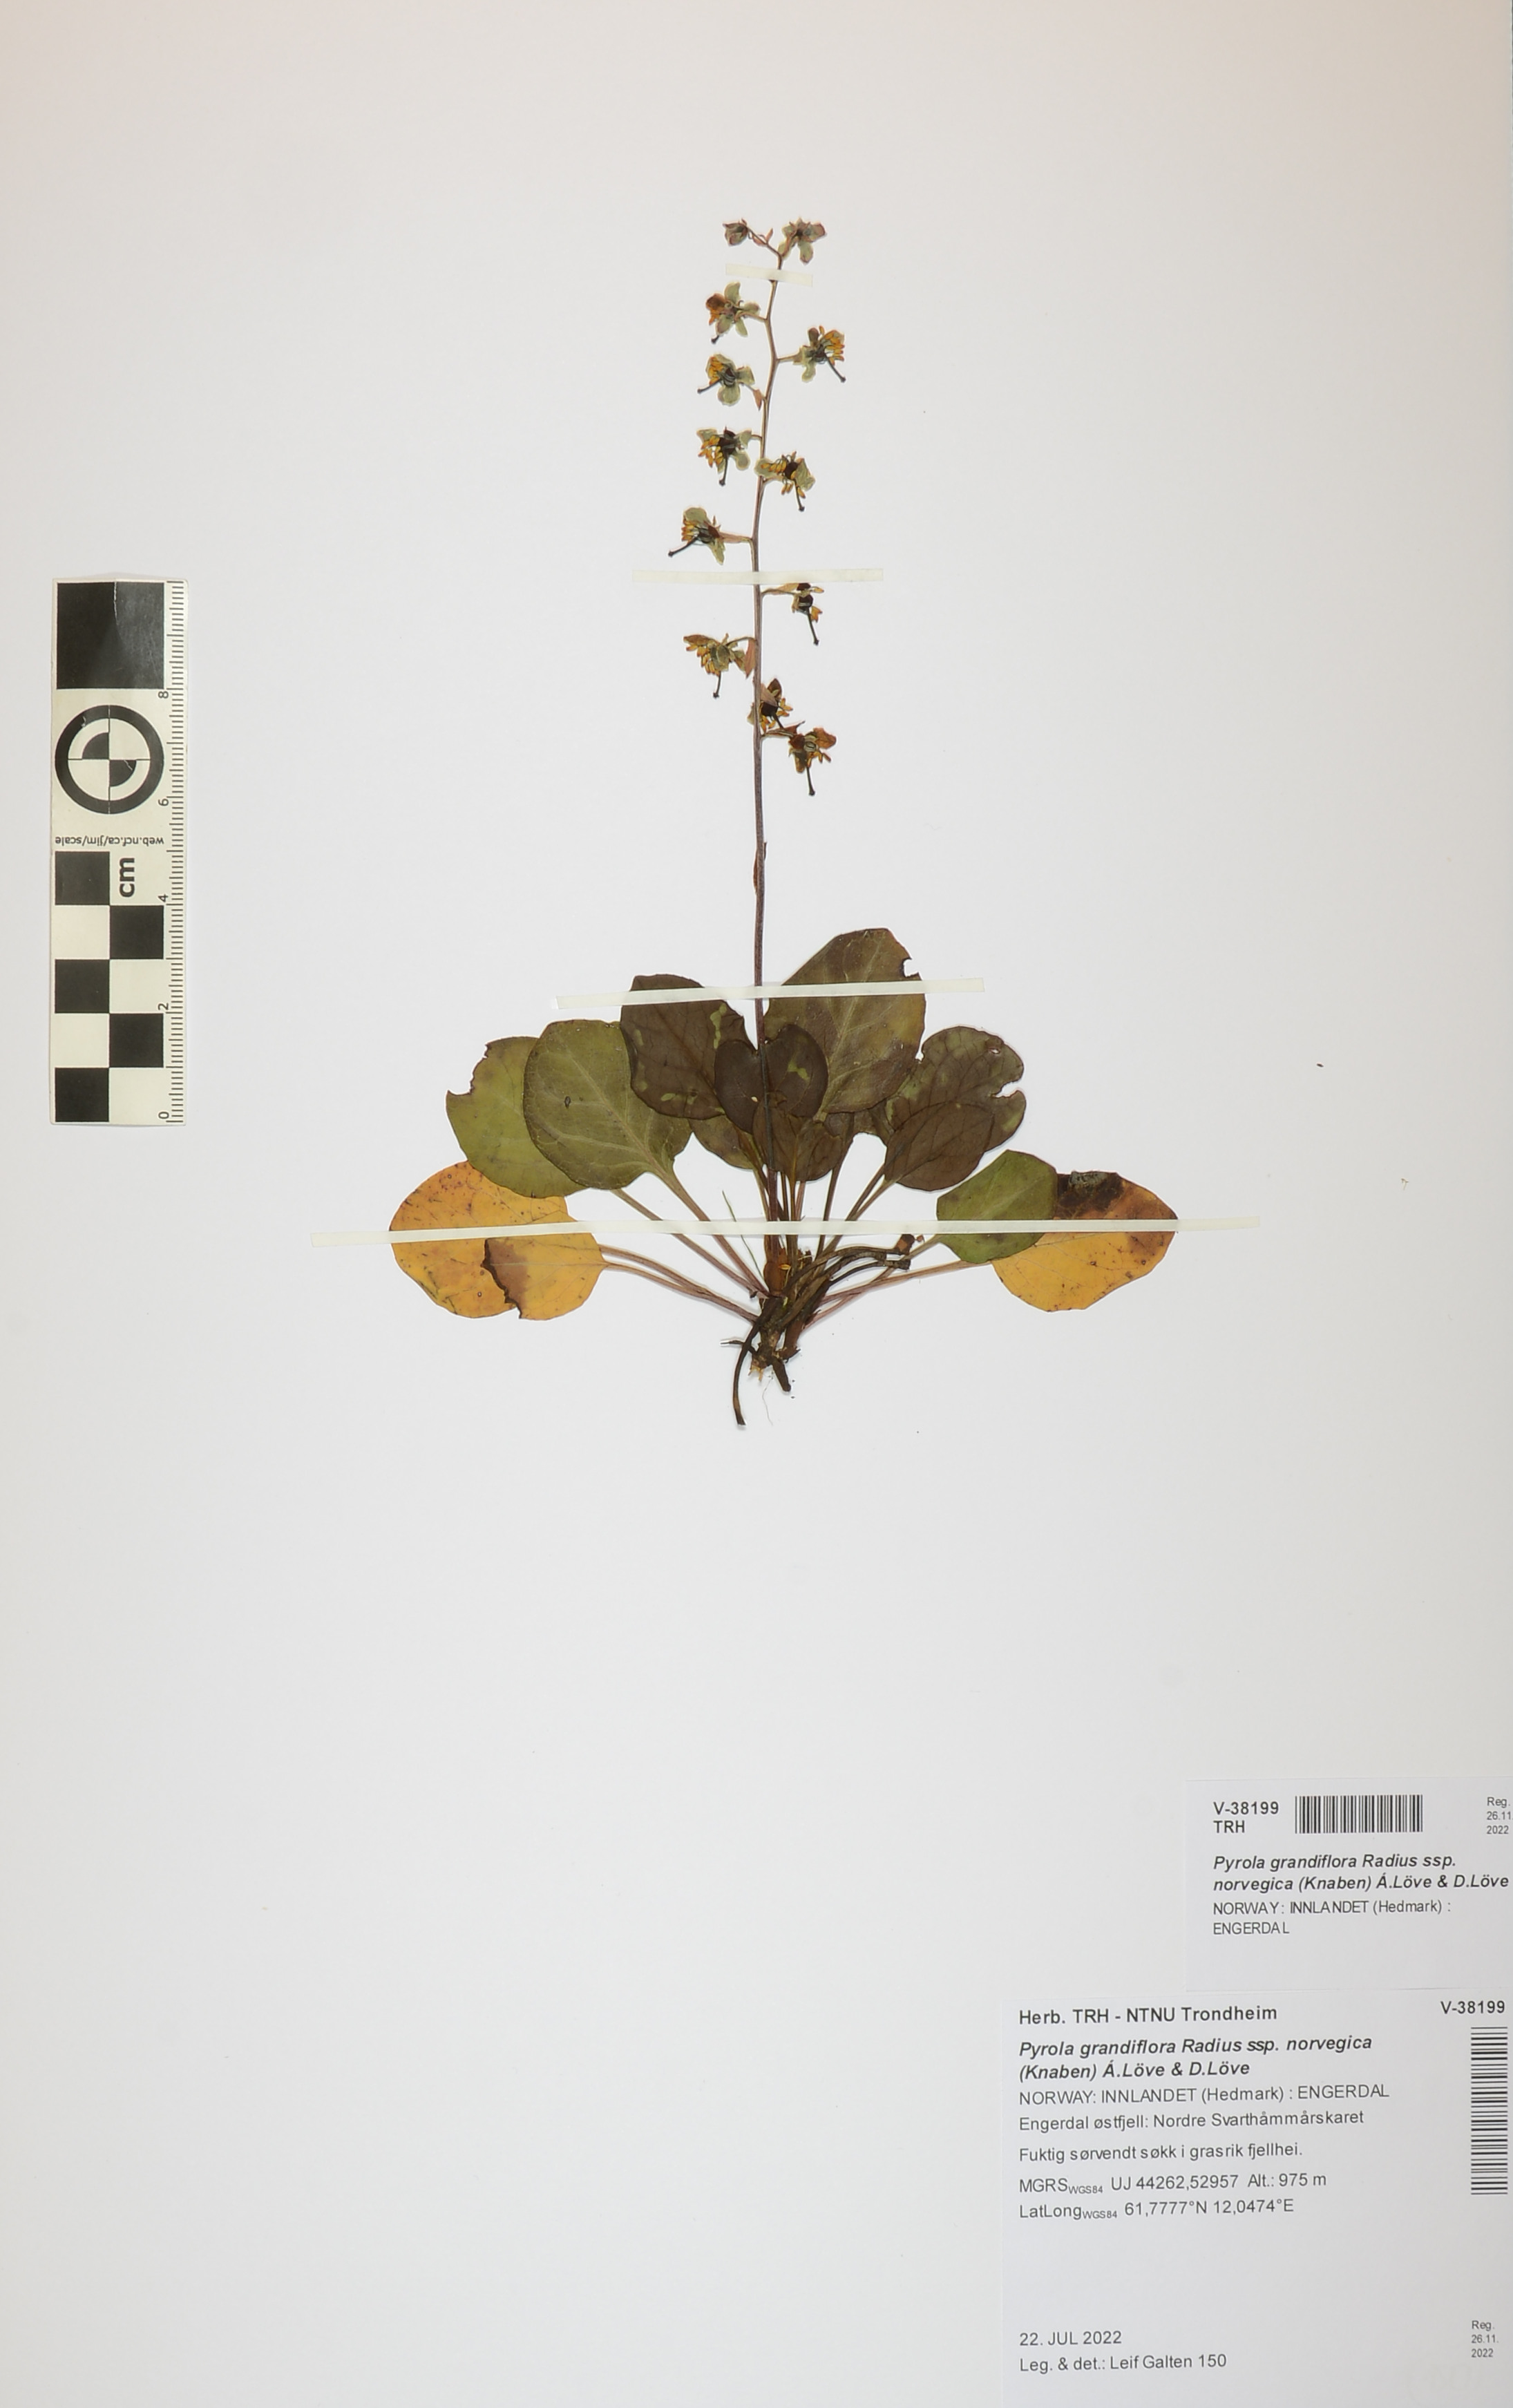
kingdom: Plantae
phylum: Tracheophyta
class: Magnoliopsida
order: Ericales
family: Ericaceae
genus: Pyrola
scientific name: Pyrola rotundifolia
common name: Round-leaved wintergreen
